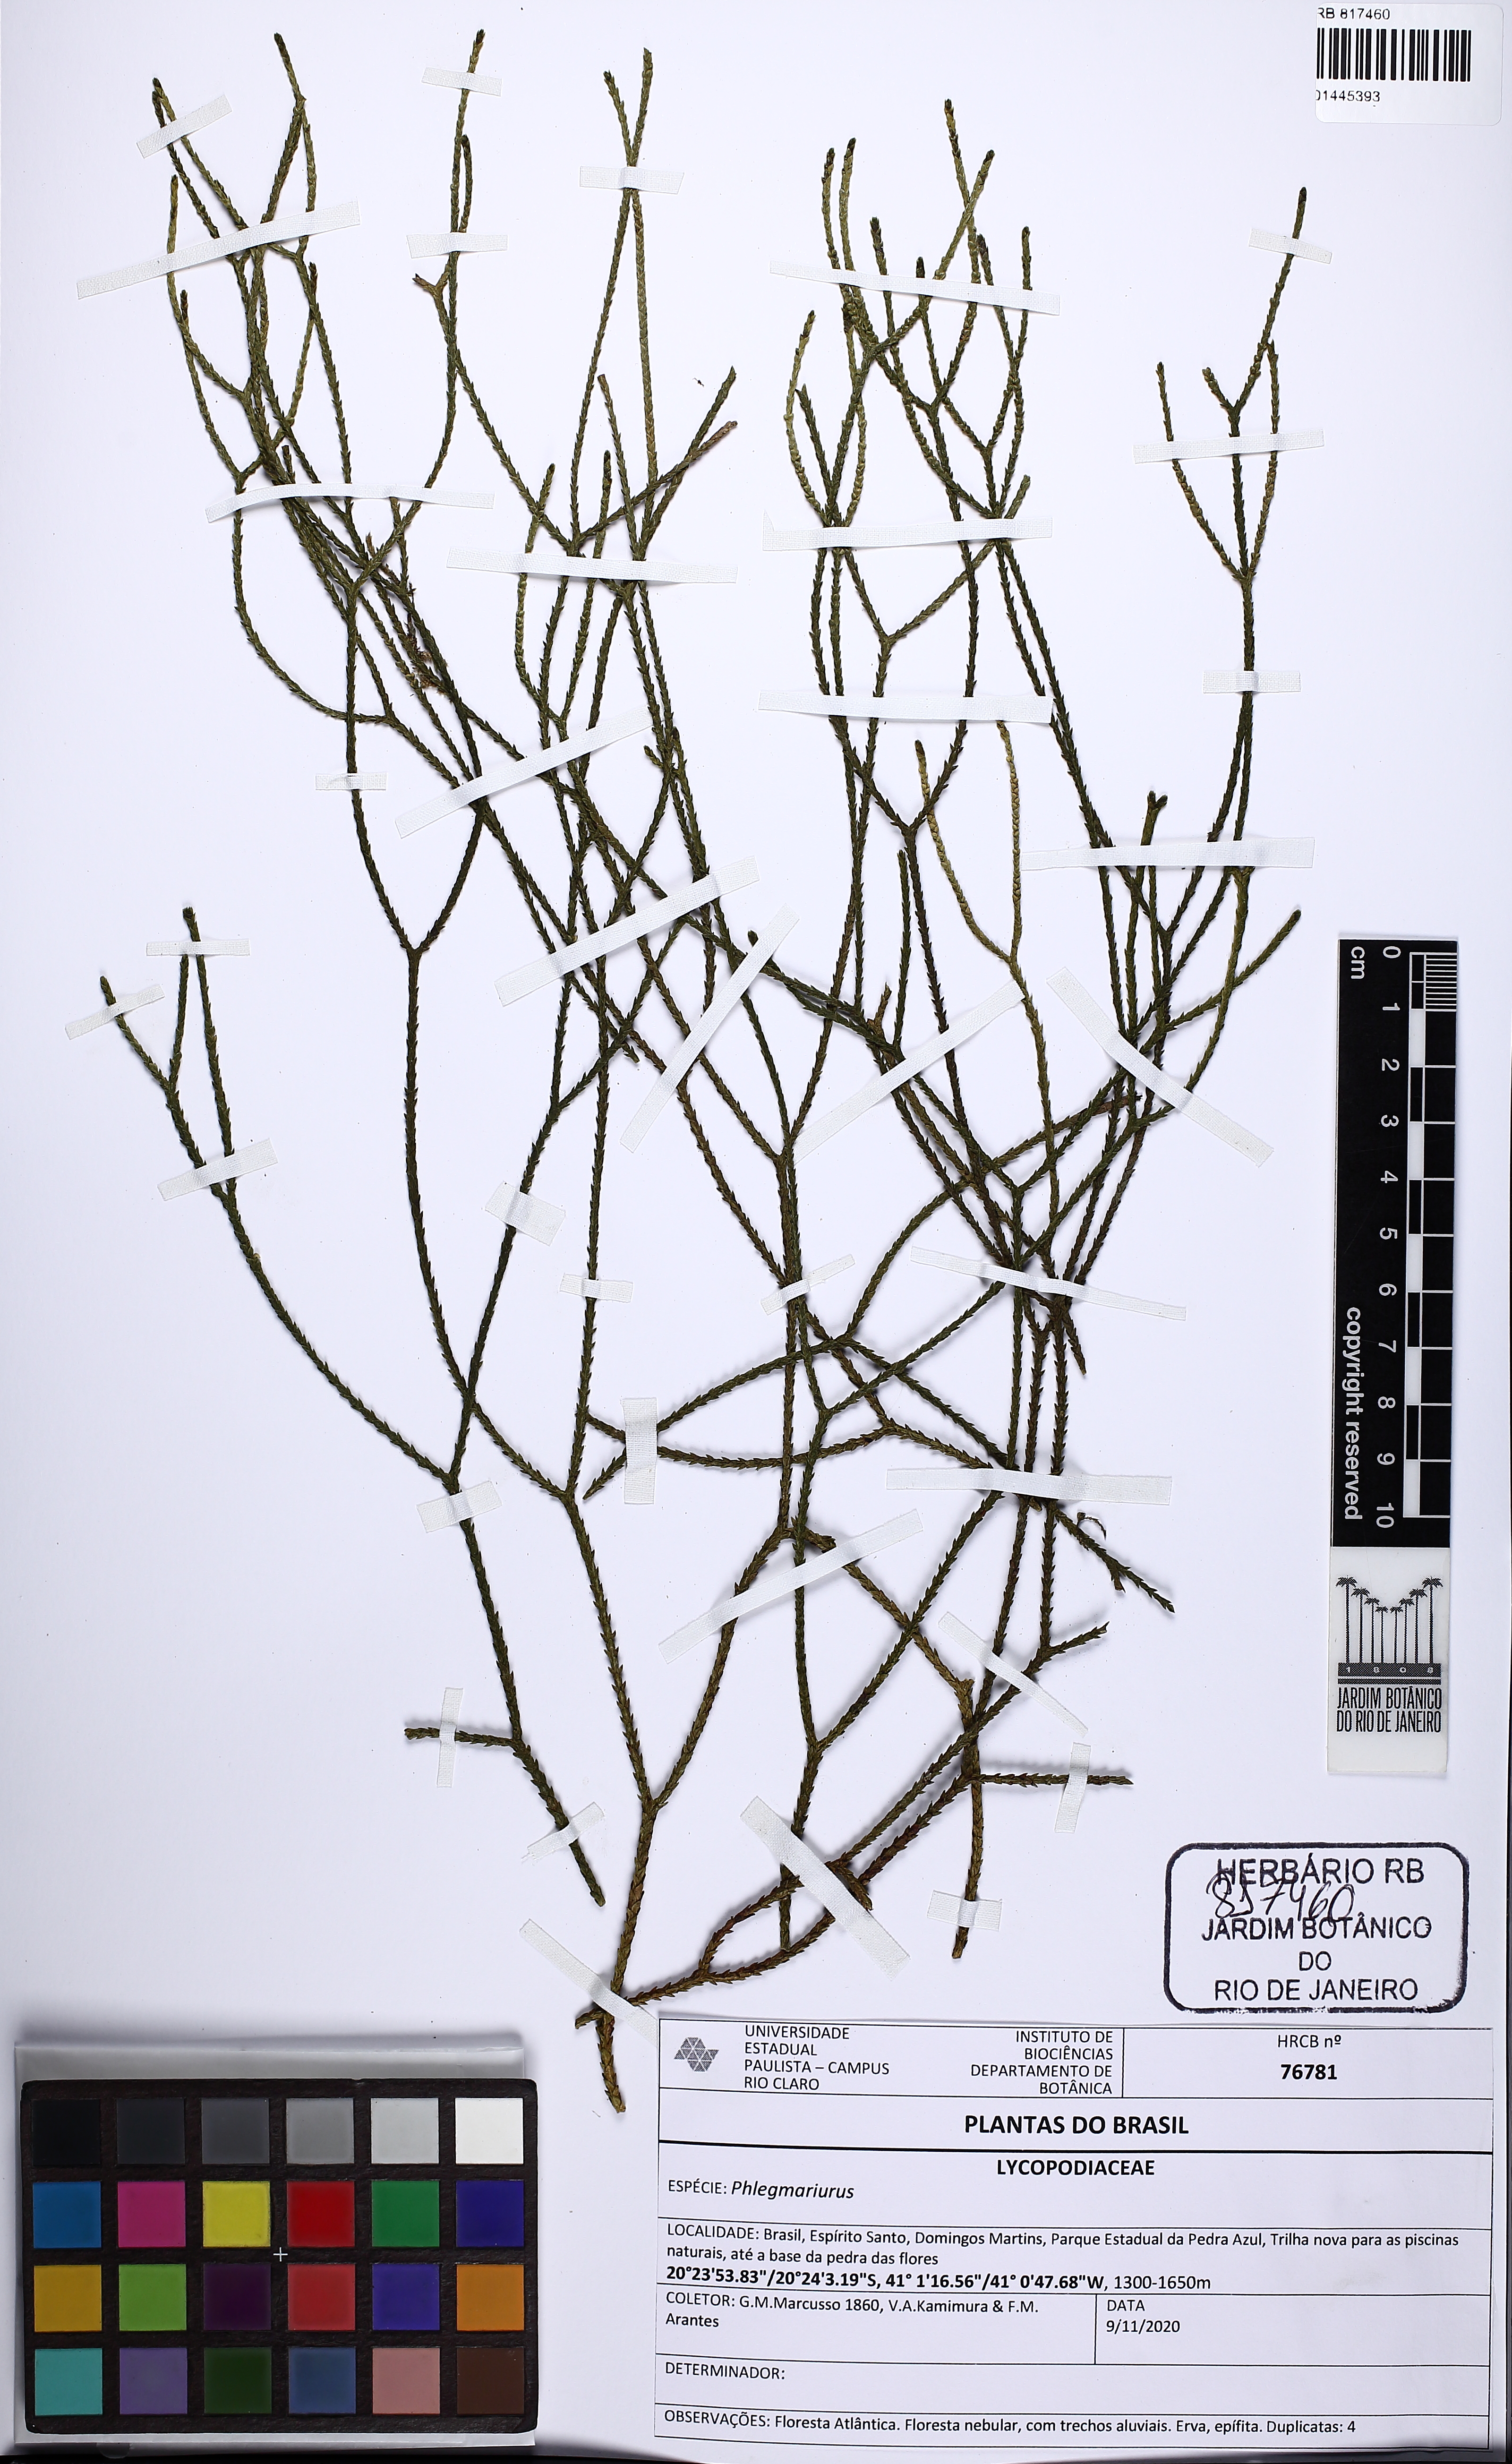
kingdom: Plantae
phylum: Tracheophyta
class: Lycopodiopsida
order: Lycopodiales
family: Lycopodiaceae
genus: Phlegmariurus
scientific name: Phlegmariurus
